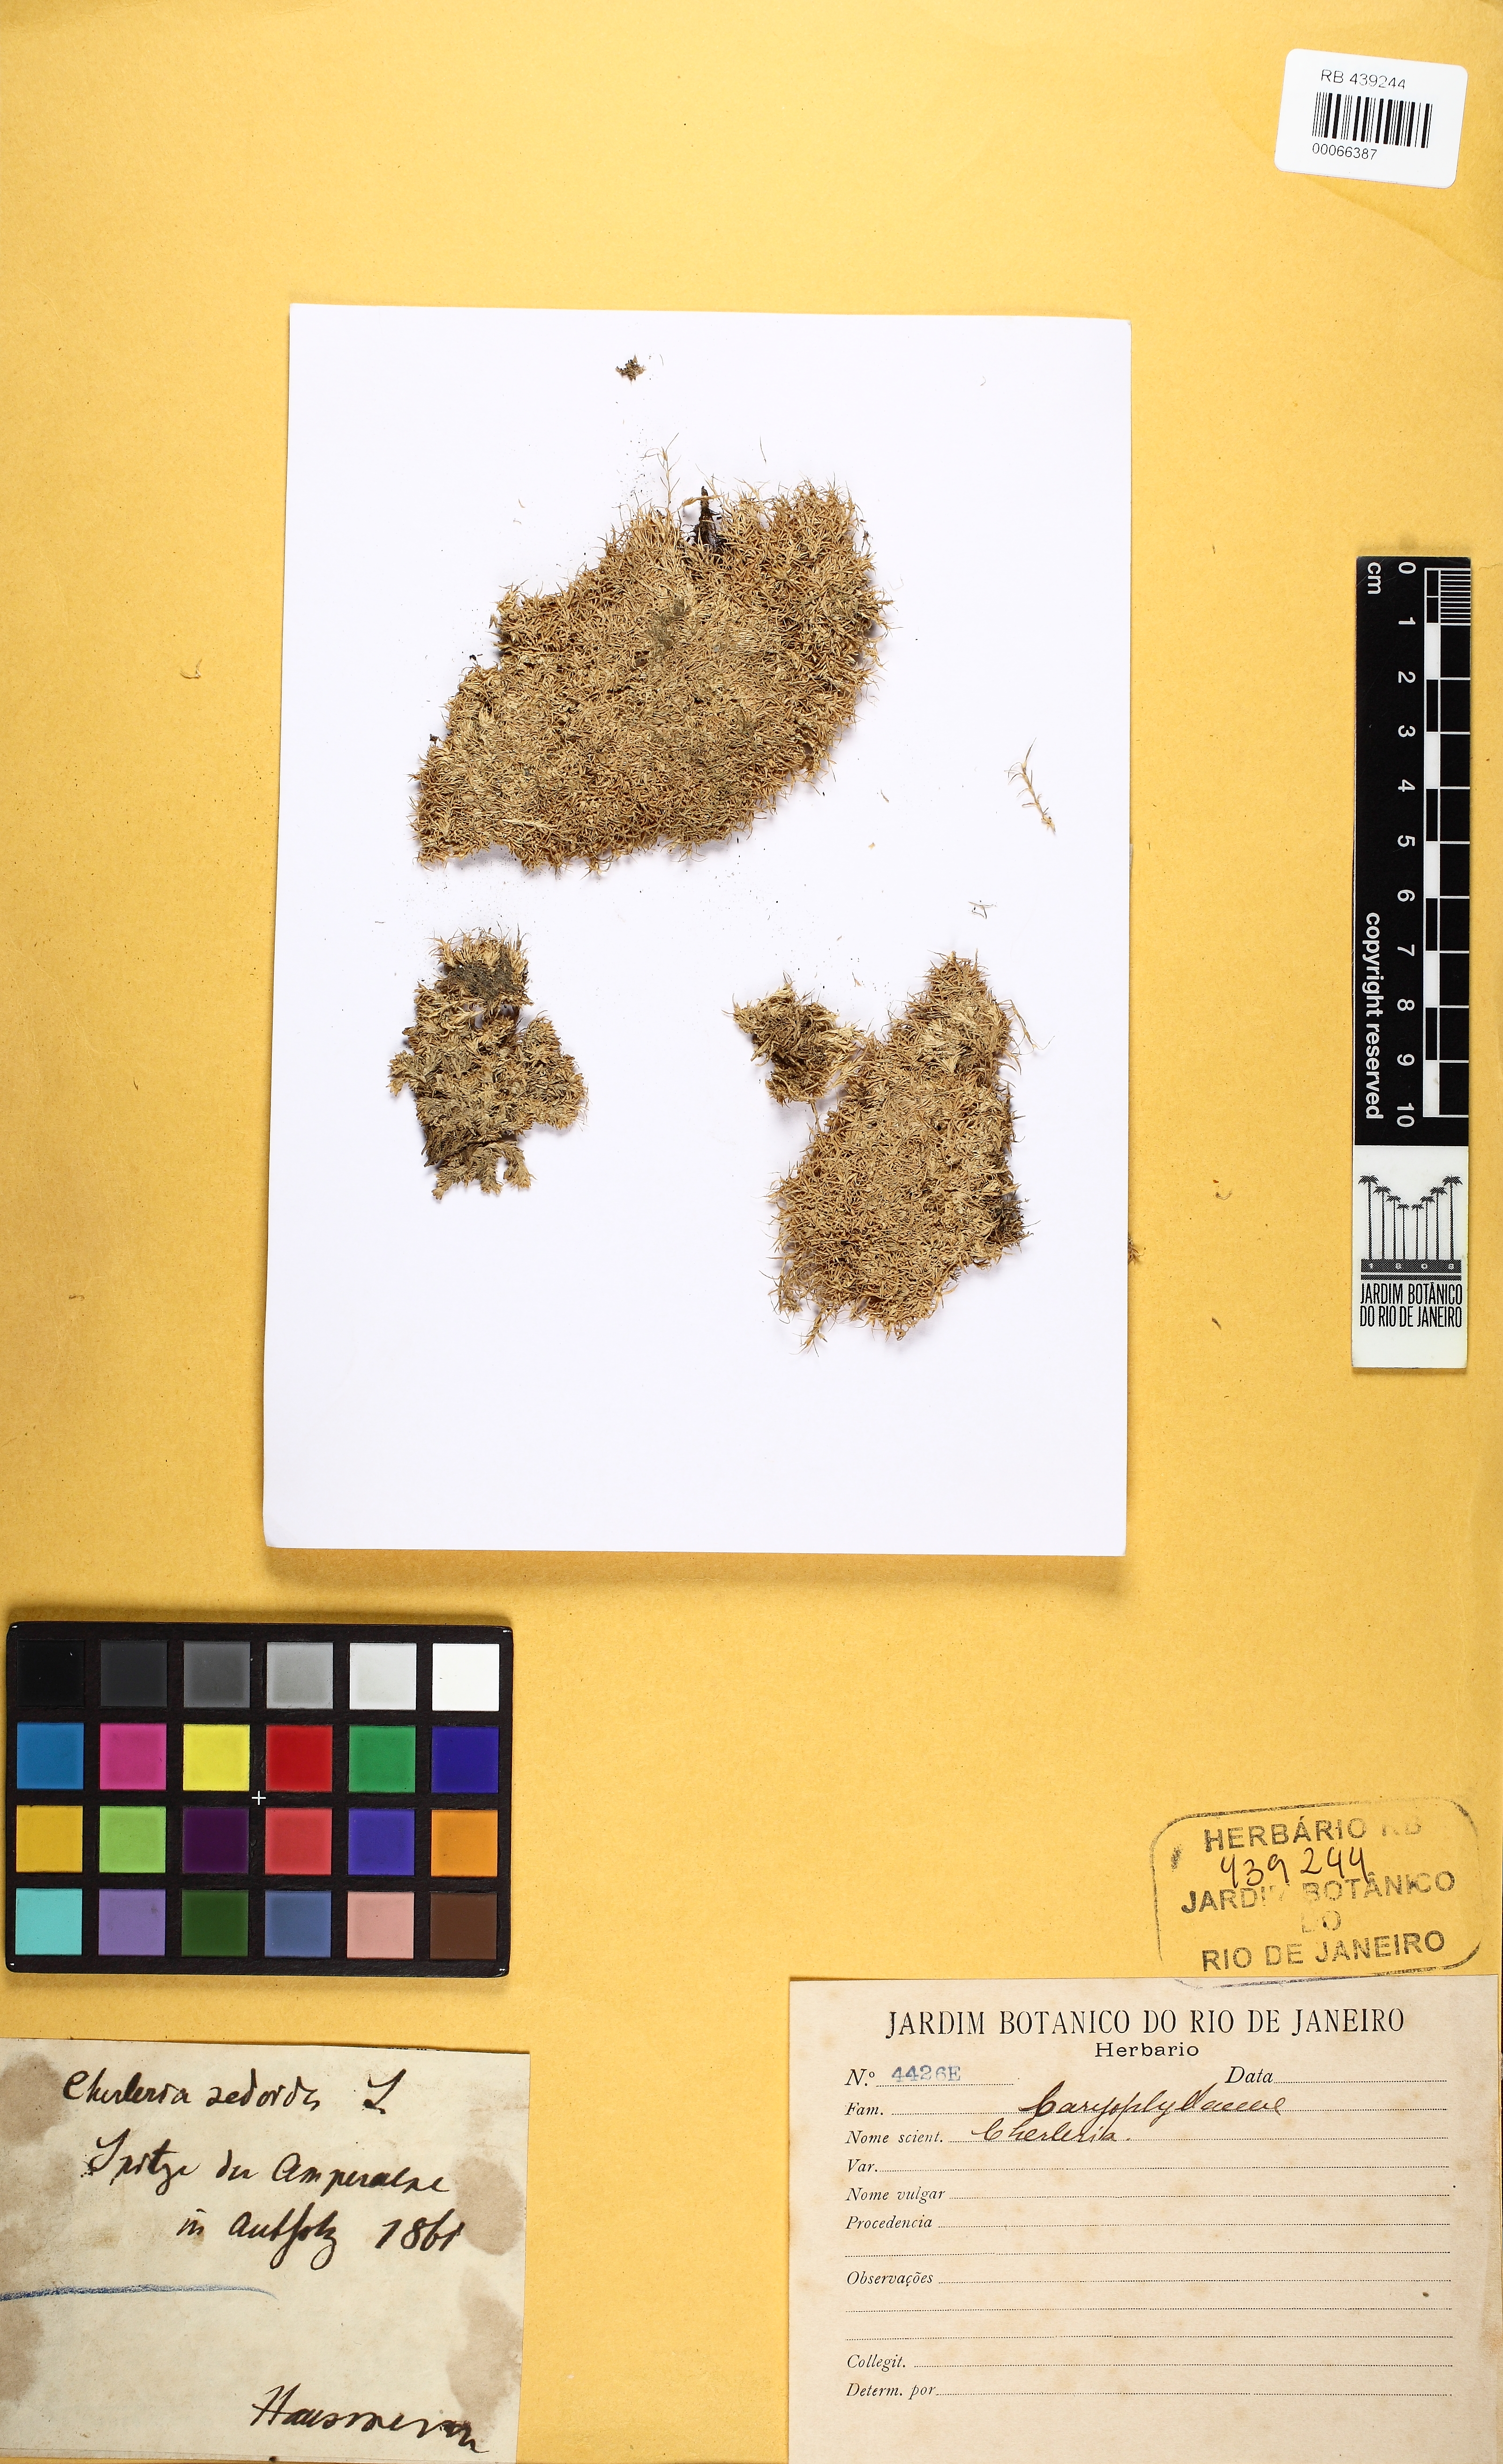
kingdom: Plantae
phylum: Tracheophyta
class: Magnoliopsida
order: Caryophyllales
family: Caryophyllaceae
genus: Cherleria
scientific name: Cherleria
